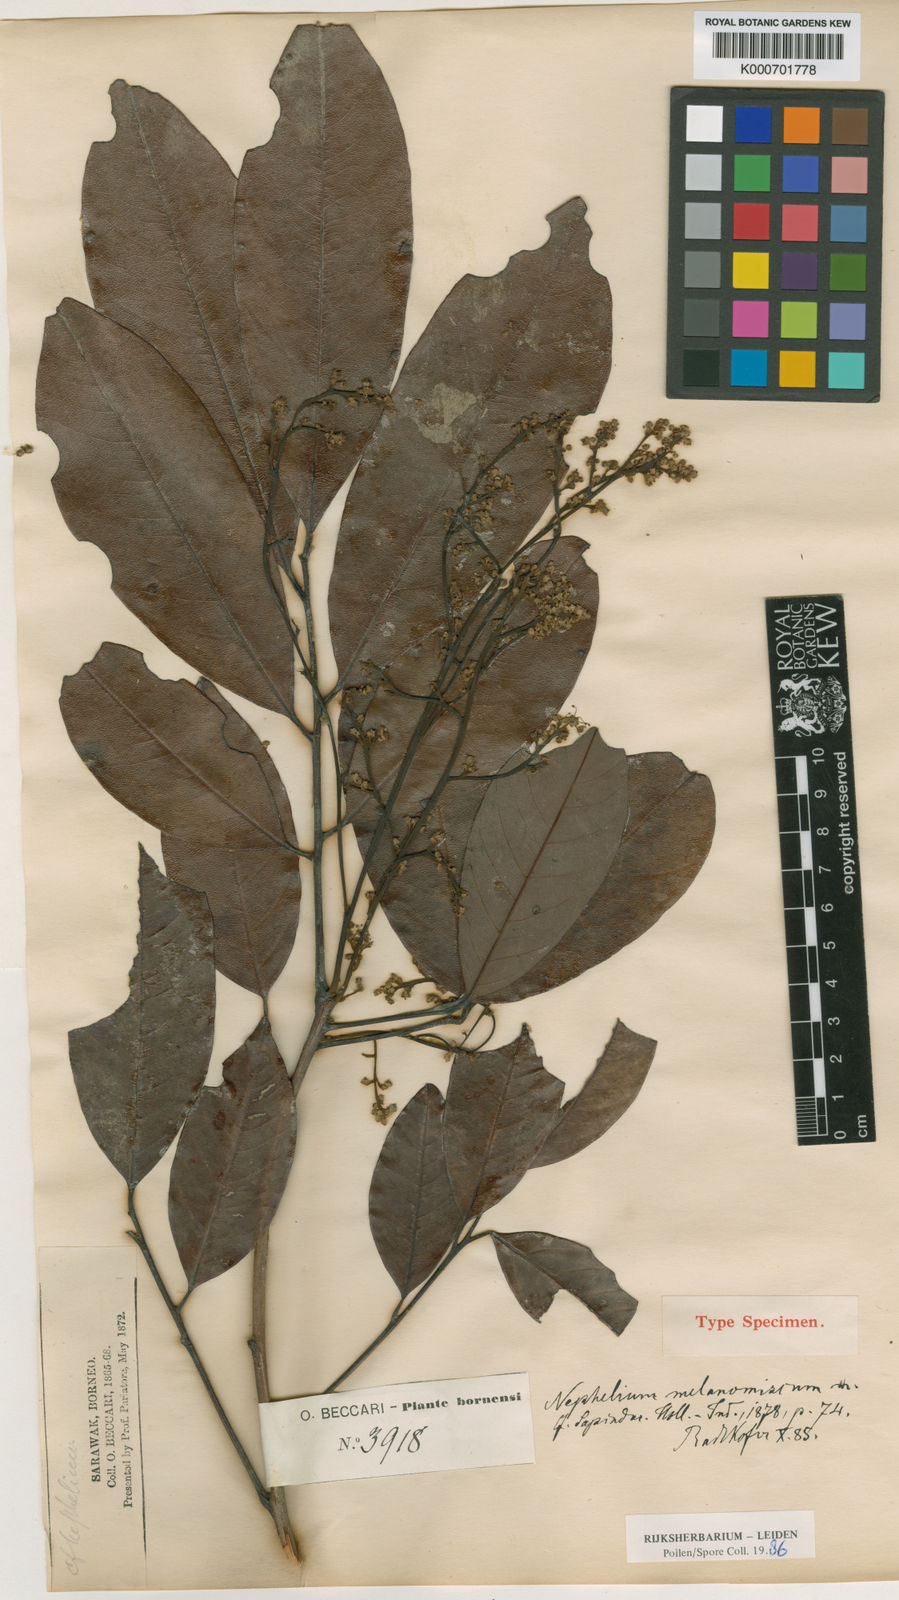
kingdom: Plantae
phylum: Tracheophyta
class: Magnoliopsida
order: Sapindales
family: Sapindaceae
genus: Nephelium
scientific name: Nephelium melanomiscum
